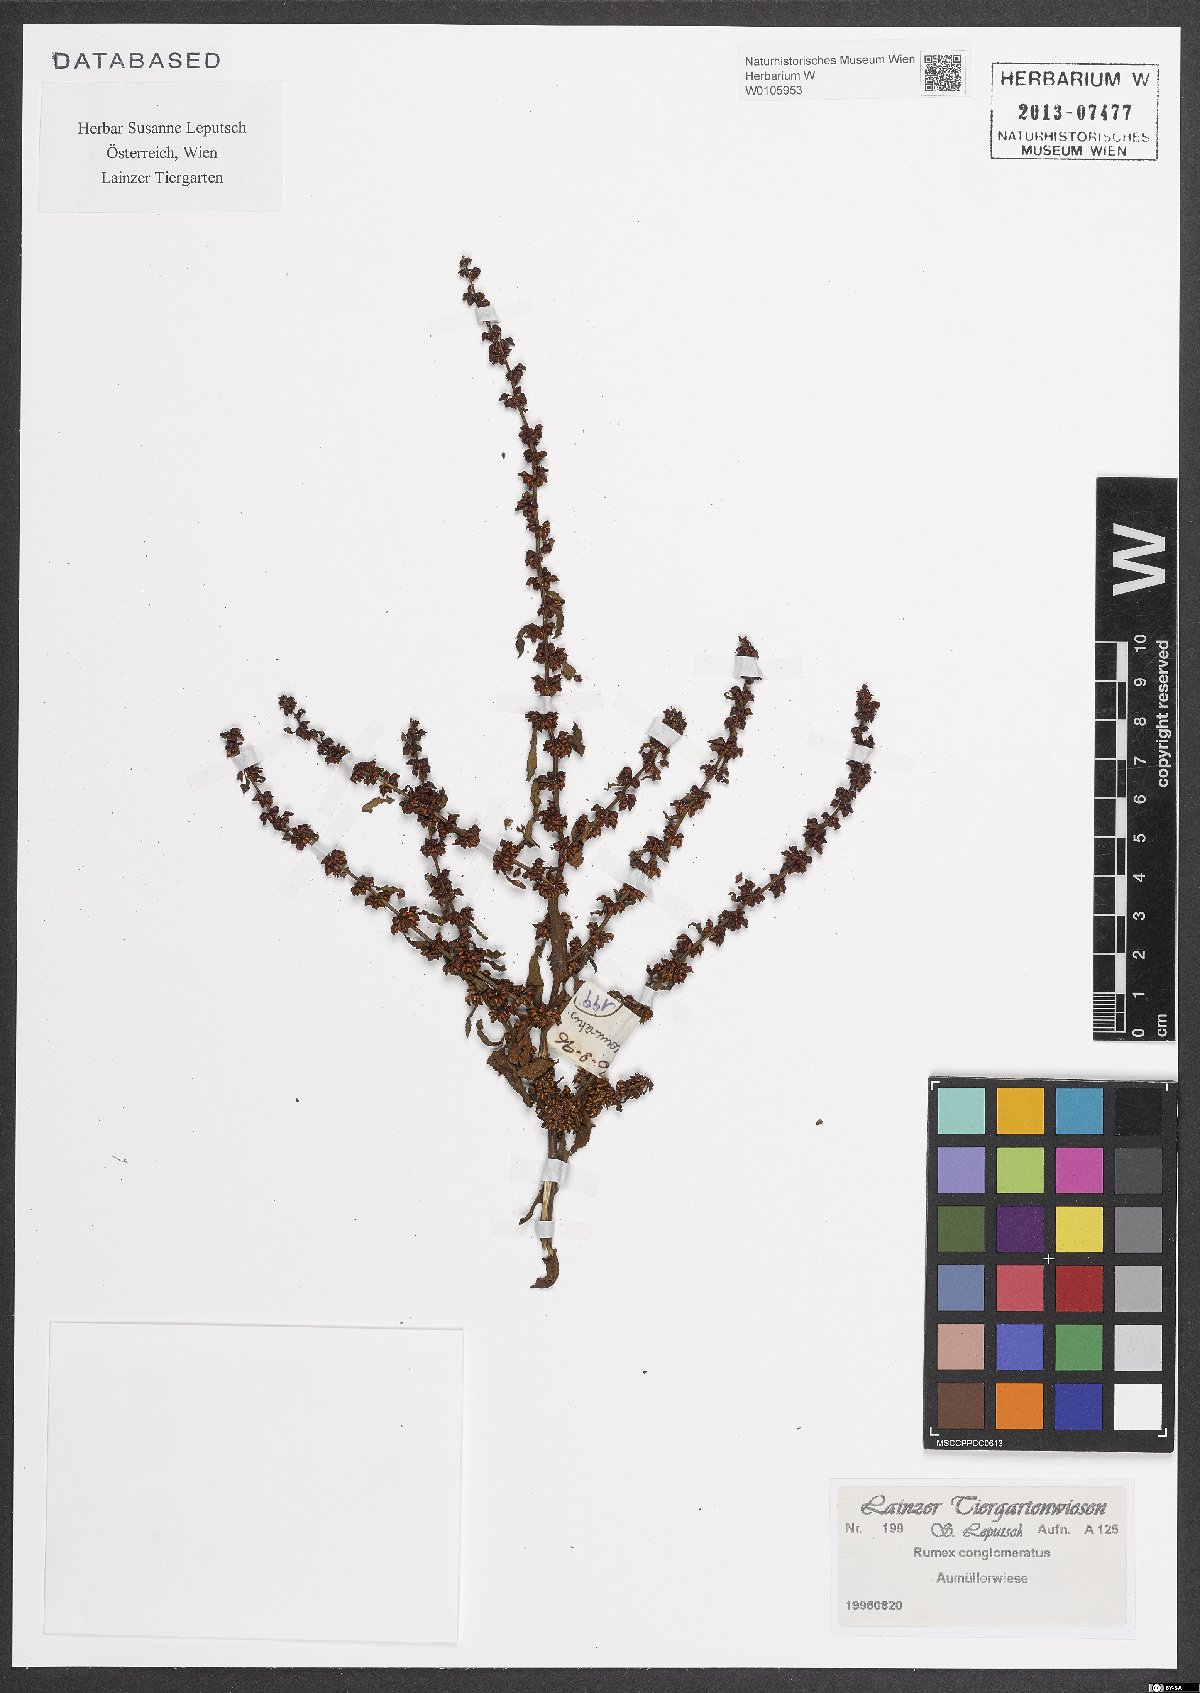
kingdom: Plantae
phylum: Tracheophyta
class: Magnoliopsida
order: Caryophyllales
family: Polygonaceae
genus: Rumex
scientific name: Rumex conglomeratus
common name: Clustered dock
